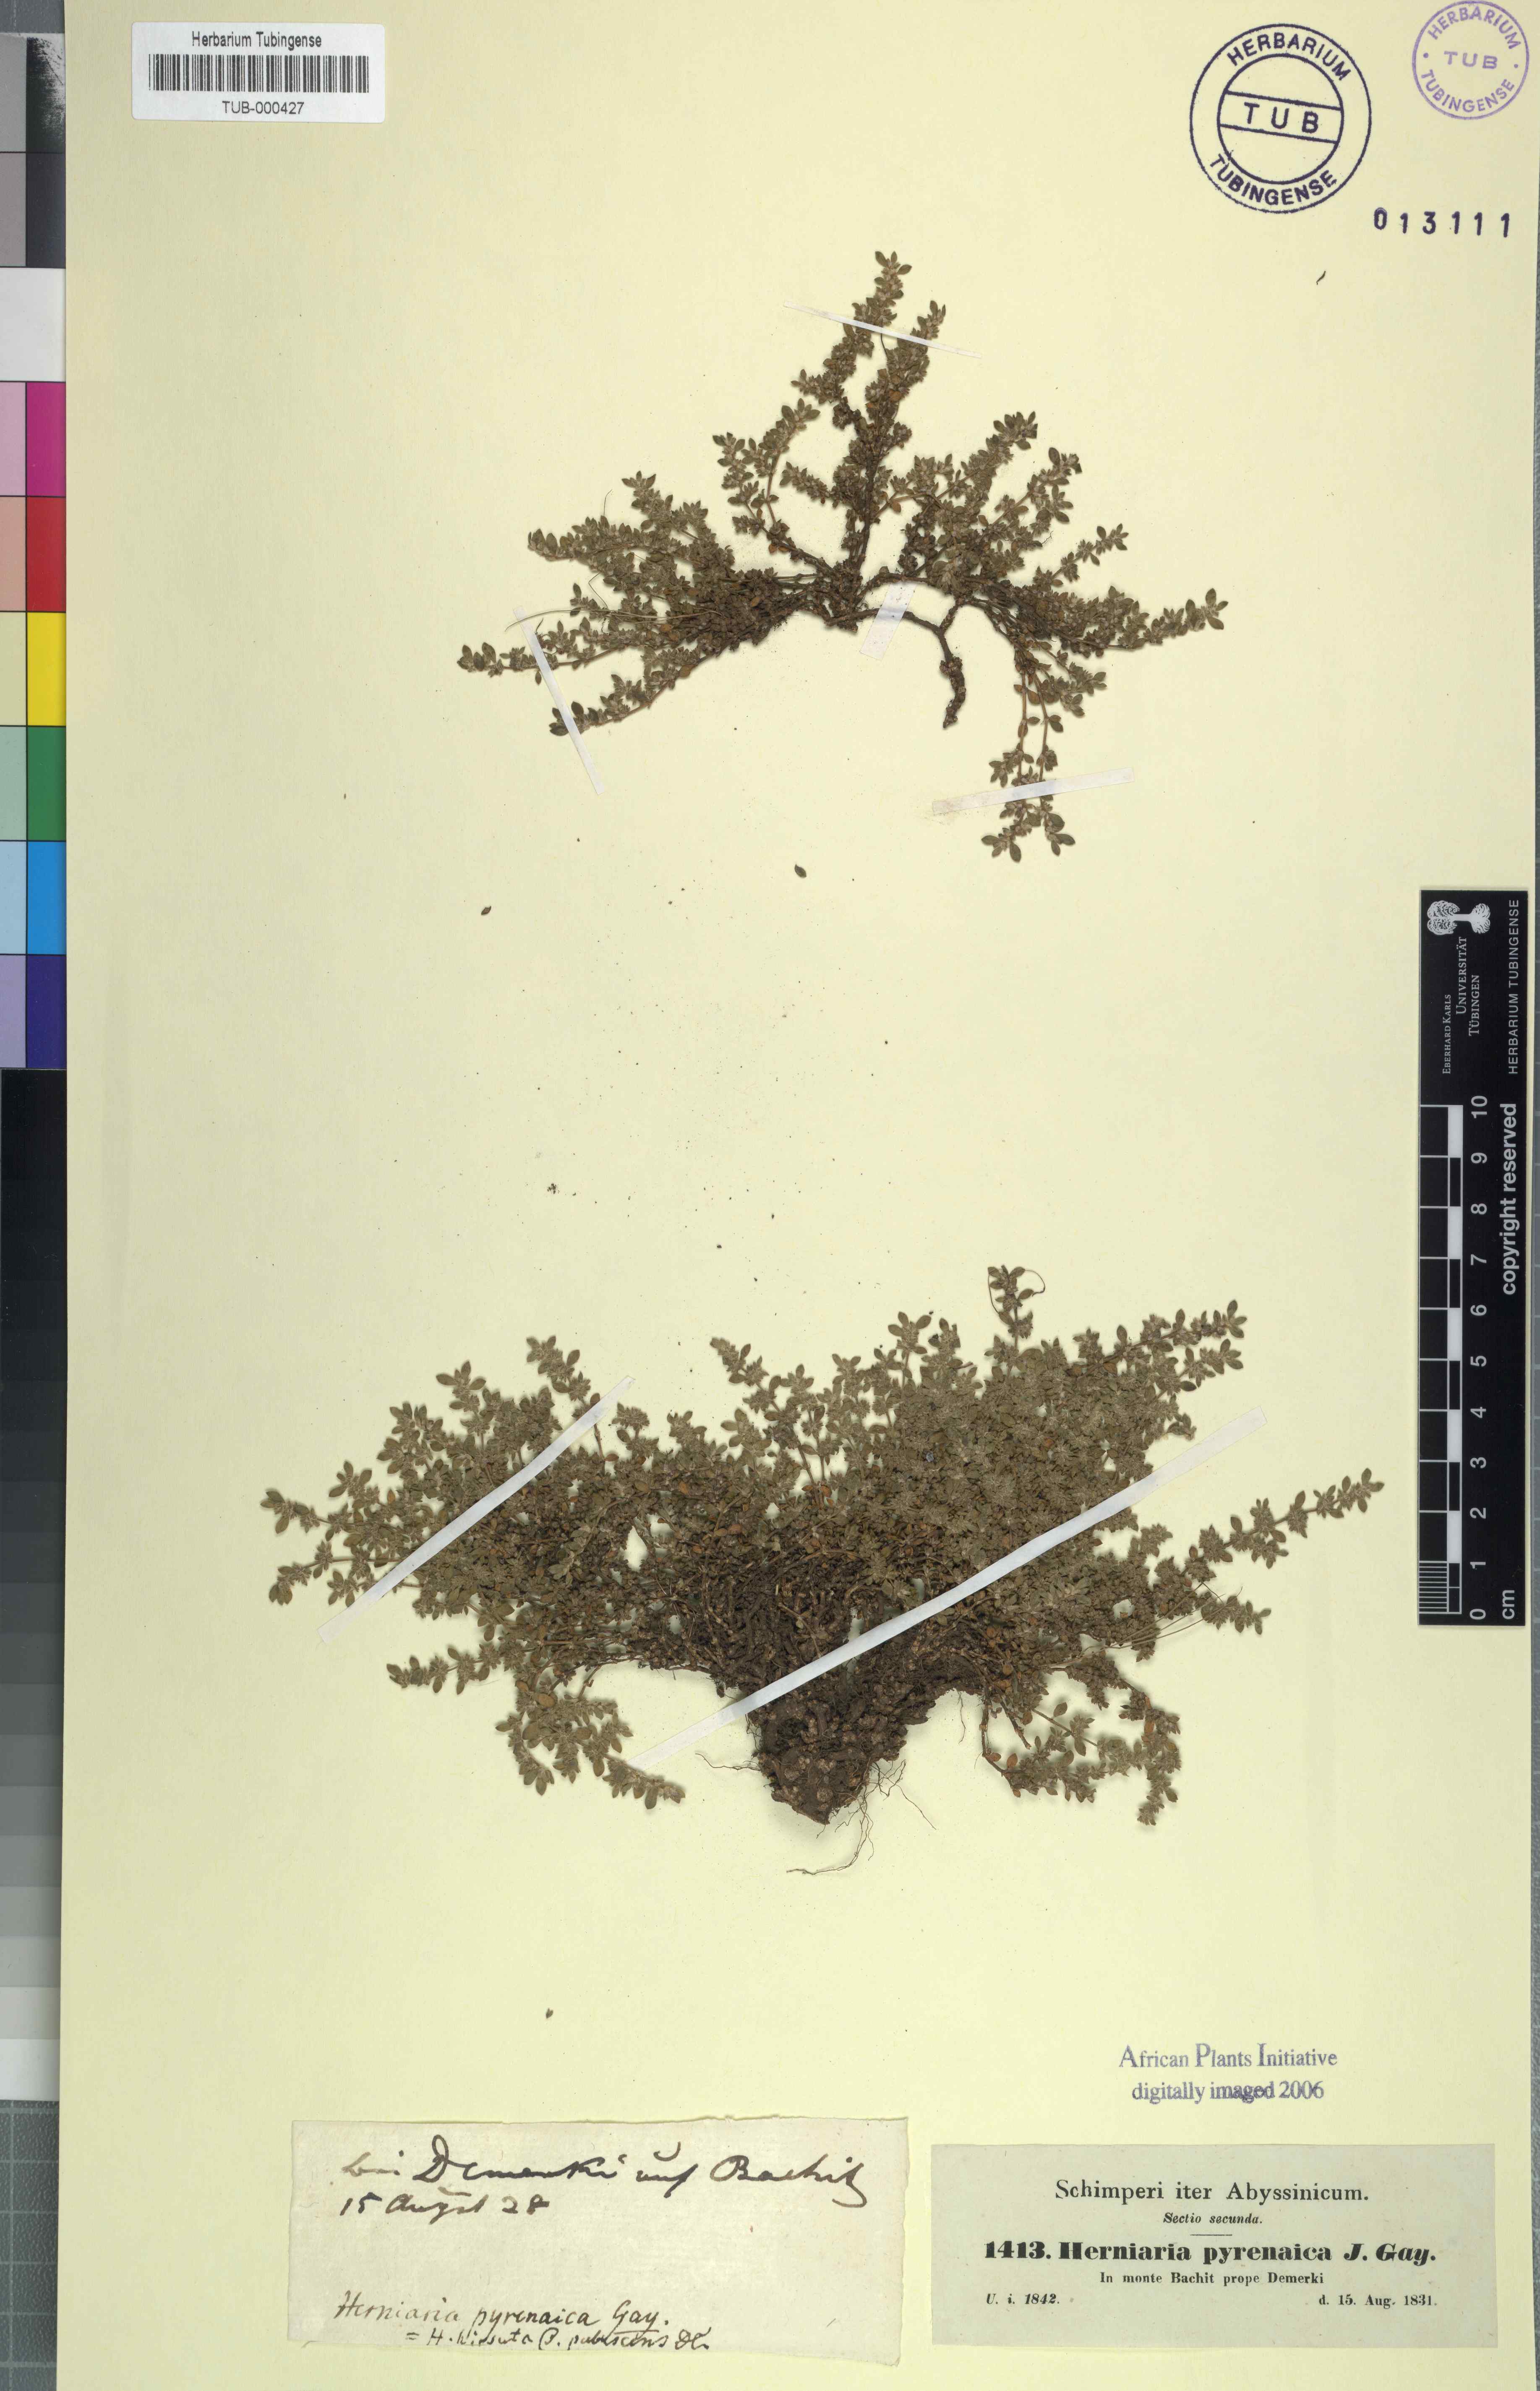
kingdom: Plantae
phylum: Tracheophyta
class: Magnoliopsida
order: Caryophyllales
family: Caryophyllaceae
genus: Herniaria
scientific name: Herniaria latifolia
